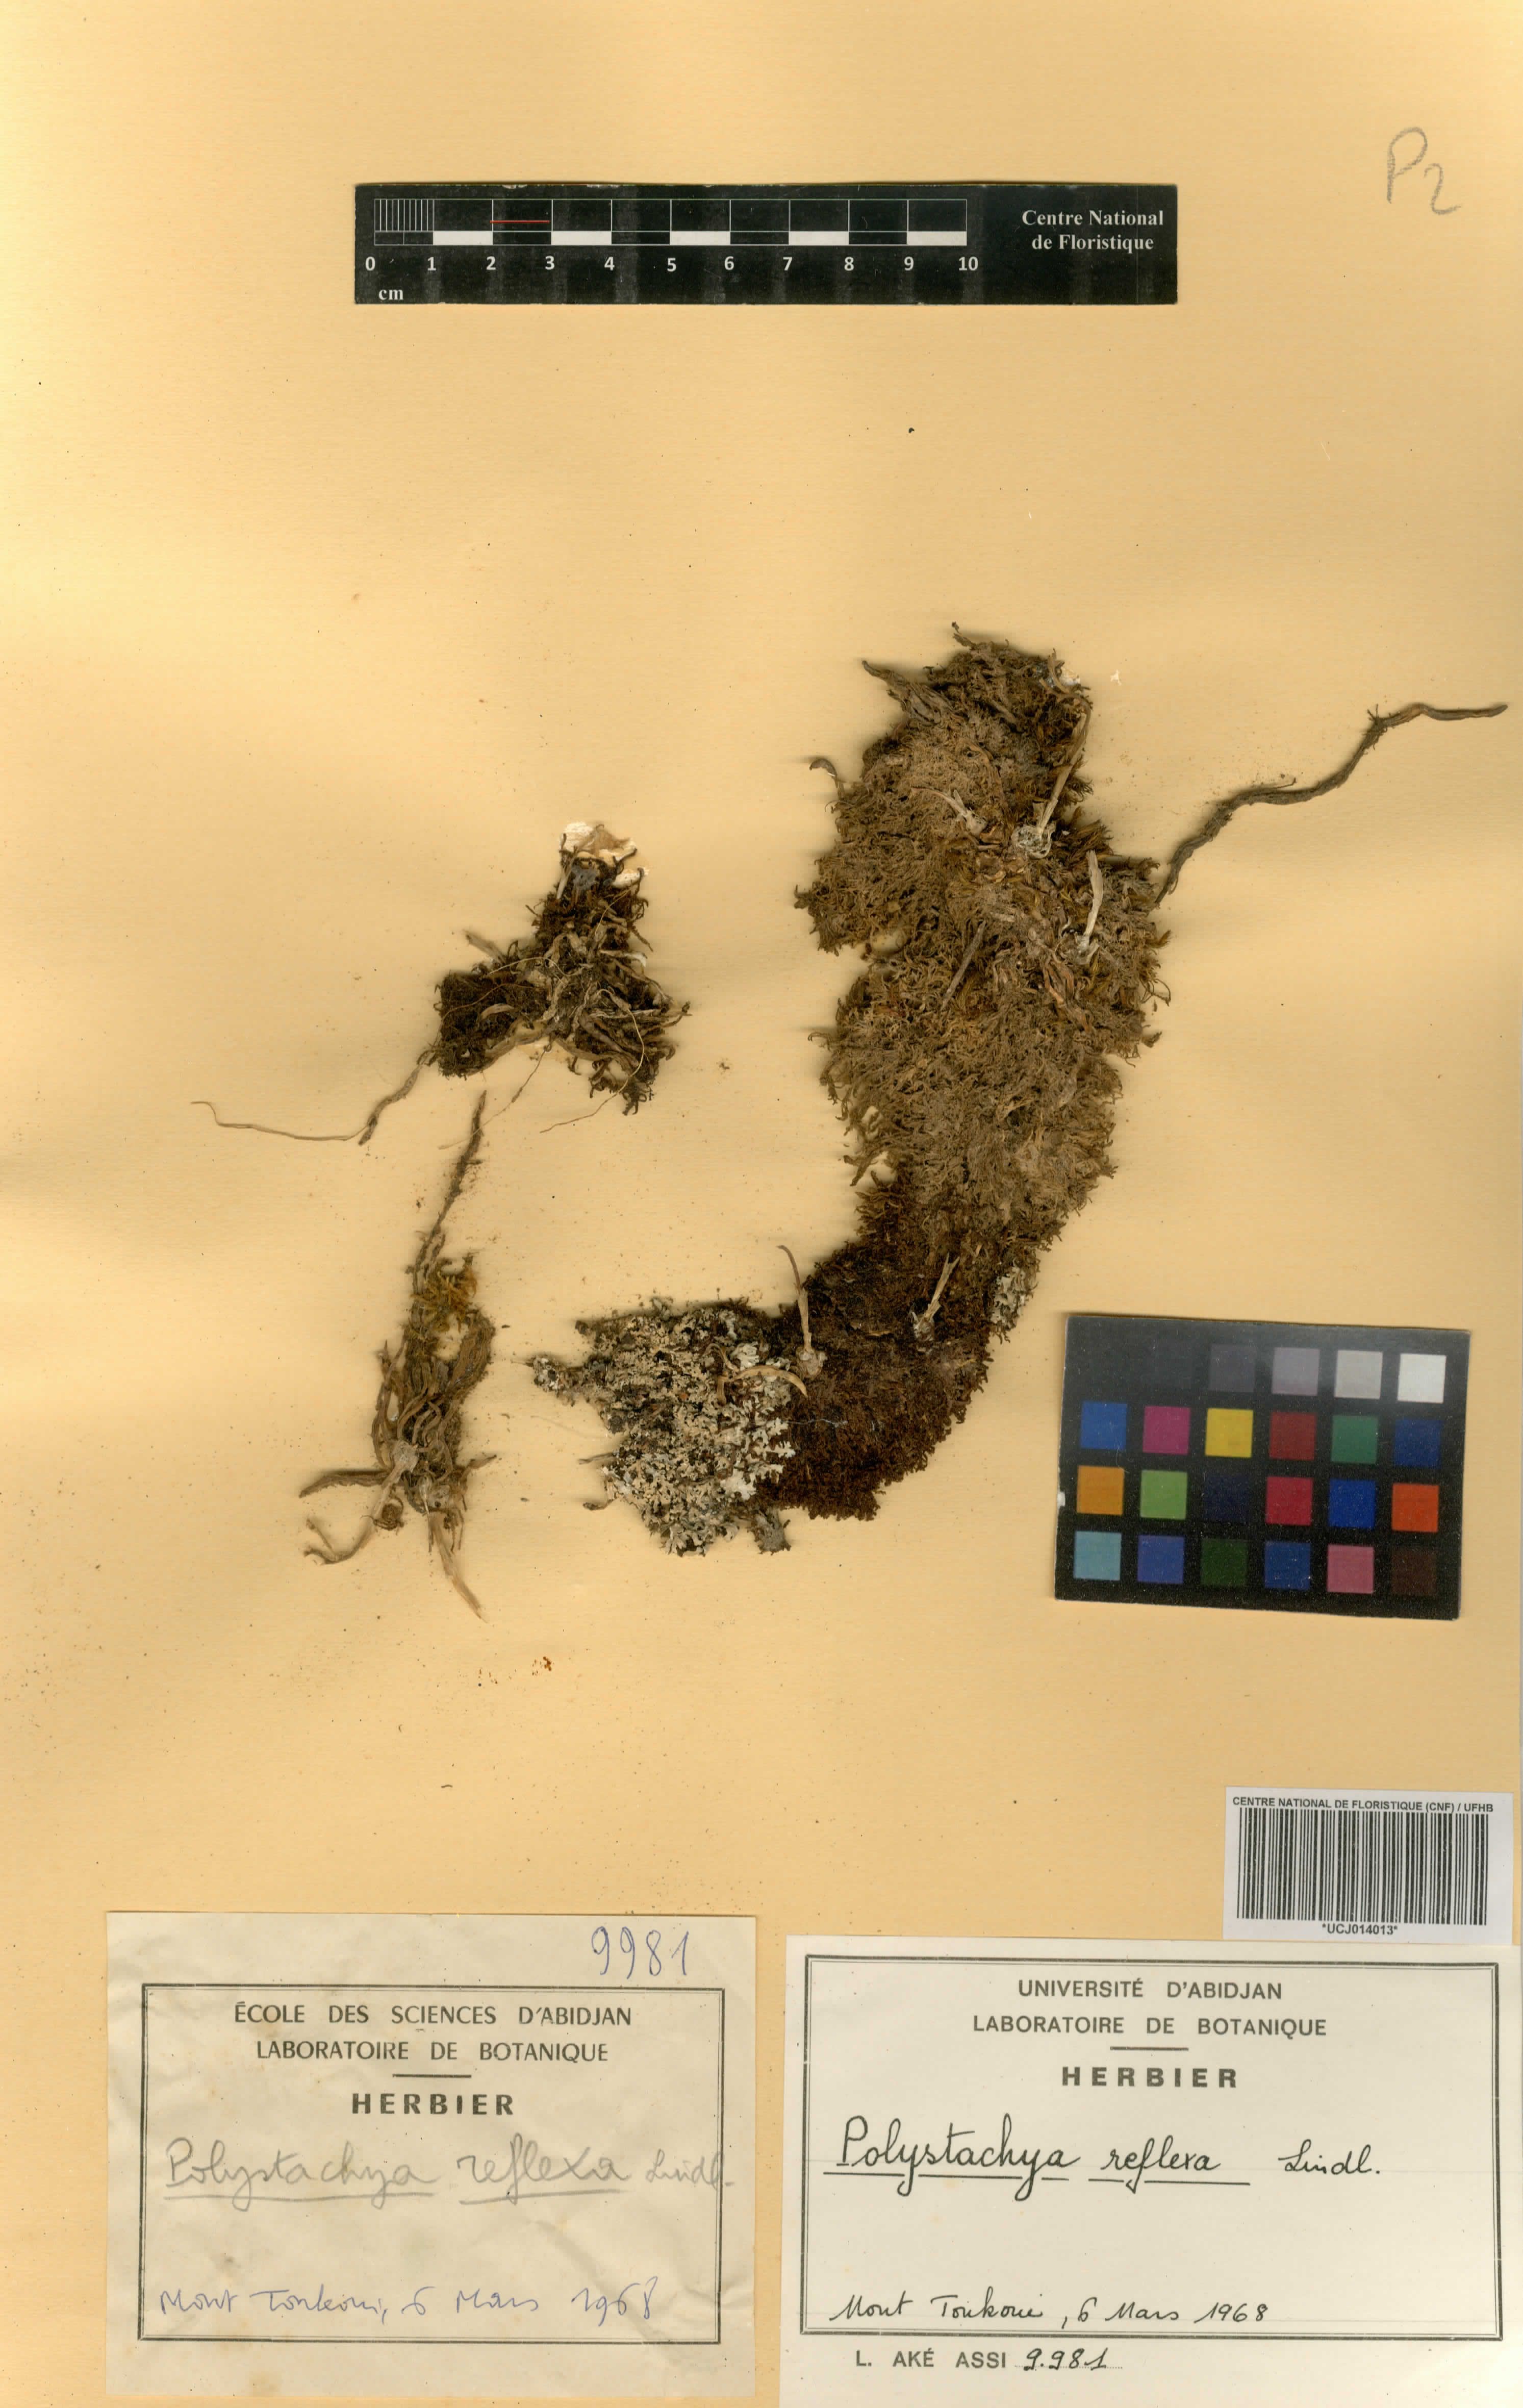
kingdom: Plantae
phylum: Tracheophyta
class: Liliopsida
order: Asparagales
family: Orchidaceae
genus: Polystachya
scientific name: Polystachya reflexa
